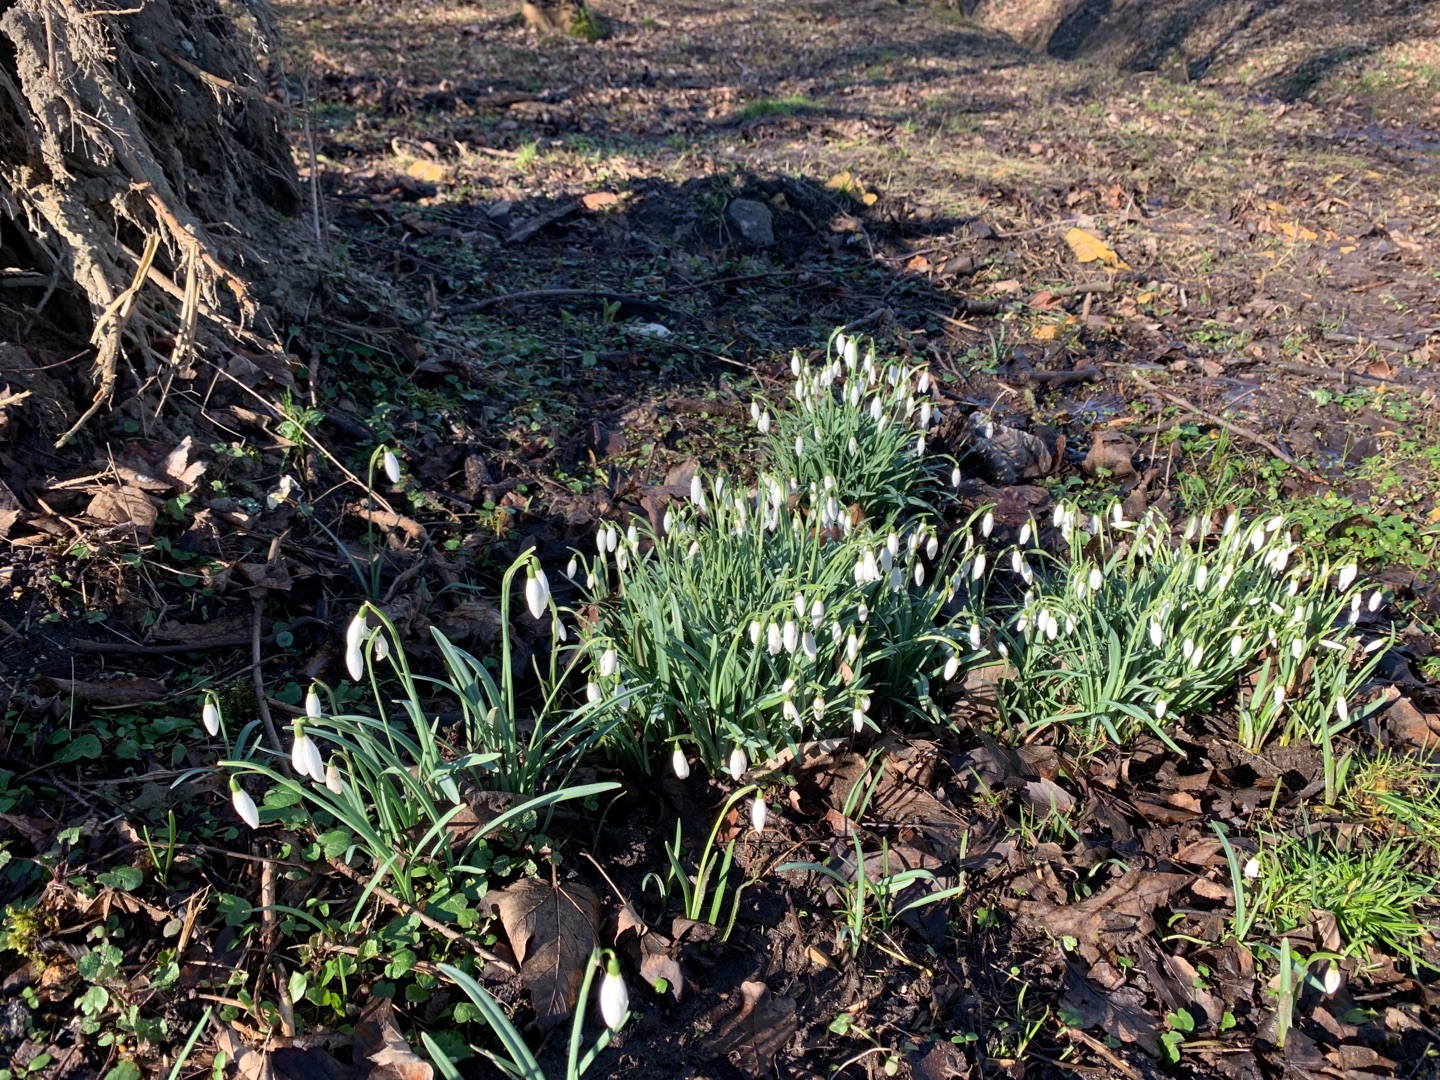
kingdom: Plantae
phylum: Tracheophyta
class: Liliopsida
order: Asparagales
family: Amaryllidaceae
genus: Galanthus
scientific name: Galanthus nivalis
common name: Vintergæk
